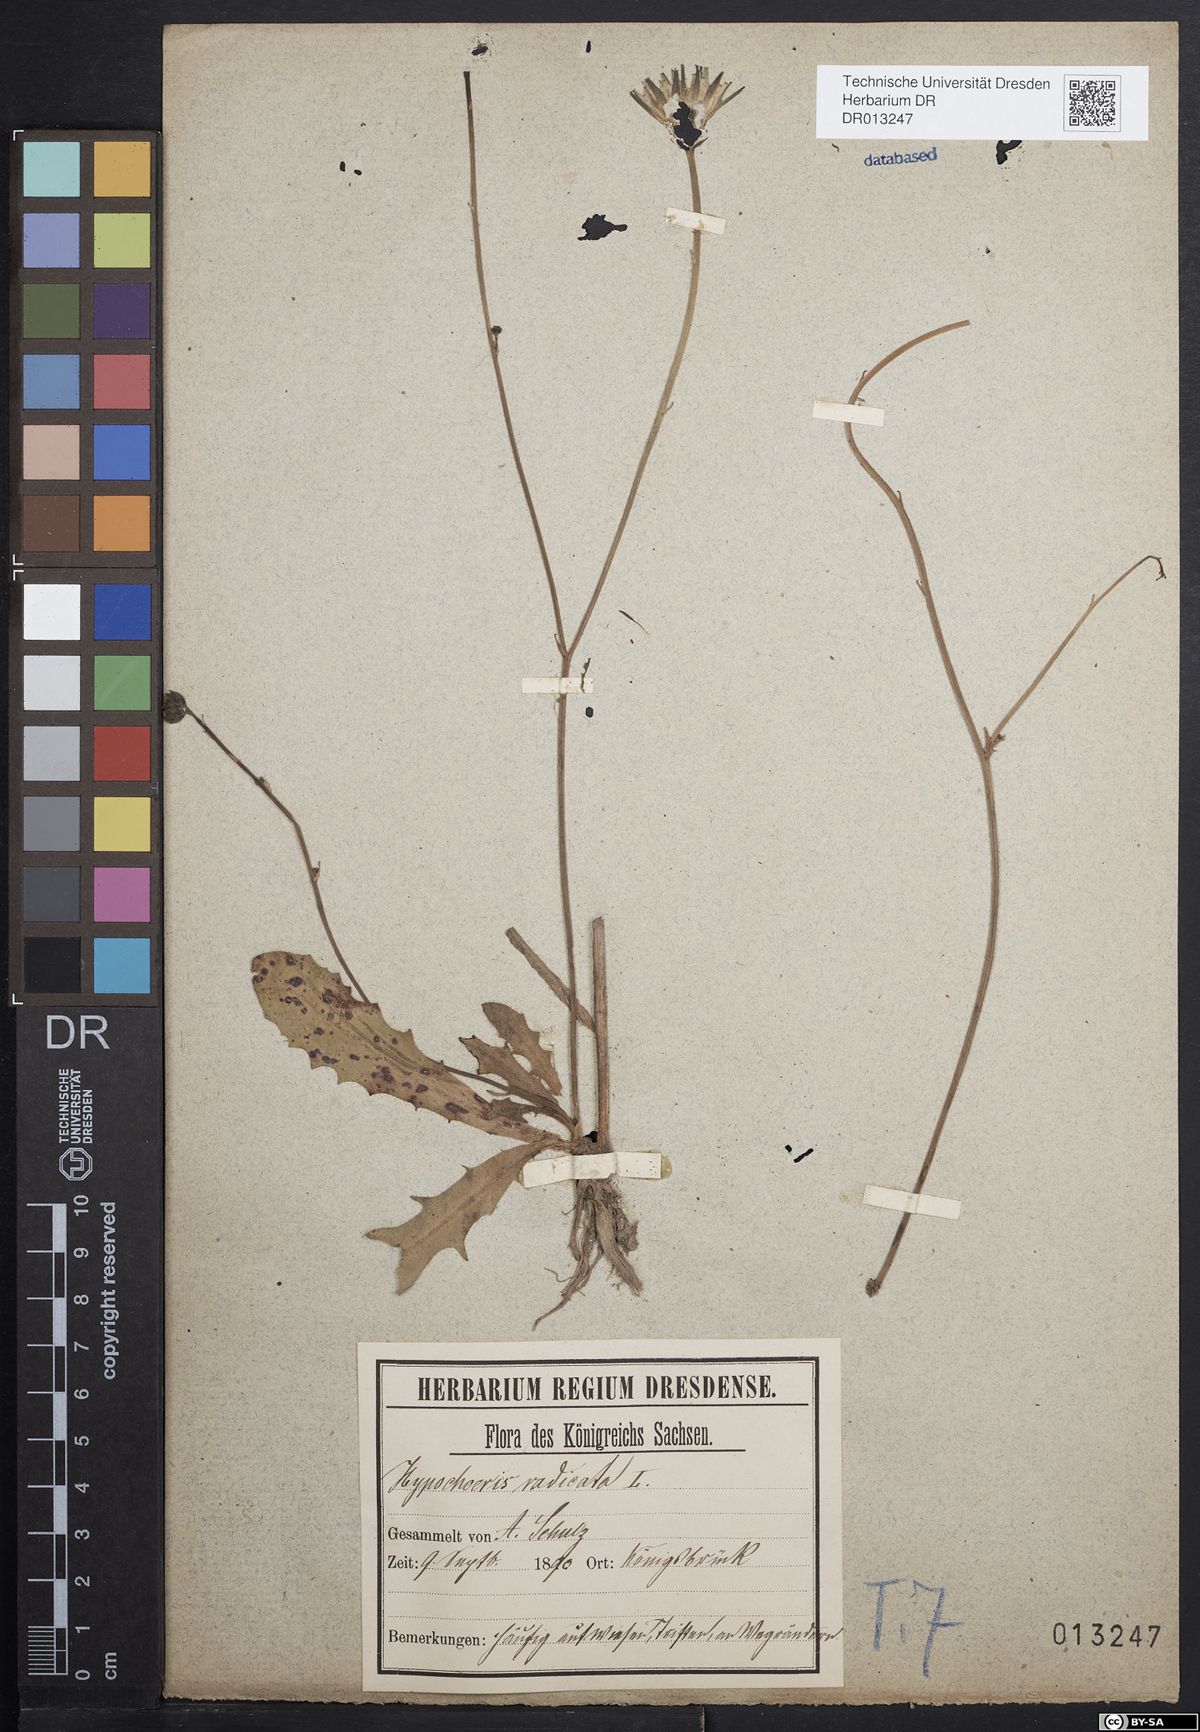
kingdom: Plantae
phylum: Tracheophyta
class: Magnoliopsida
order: Asterales
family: Asteraceae
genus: Hypochaeris
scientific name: Hypochaeris radicata
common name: Flatweed
